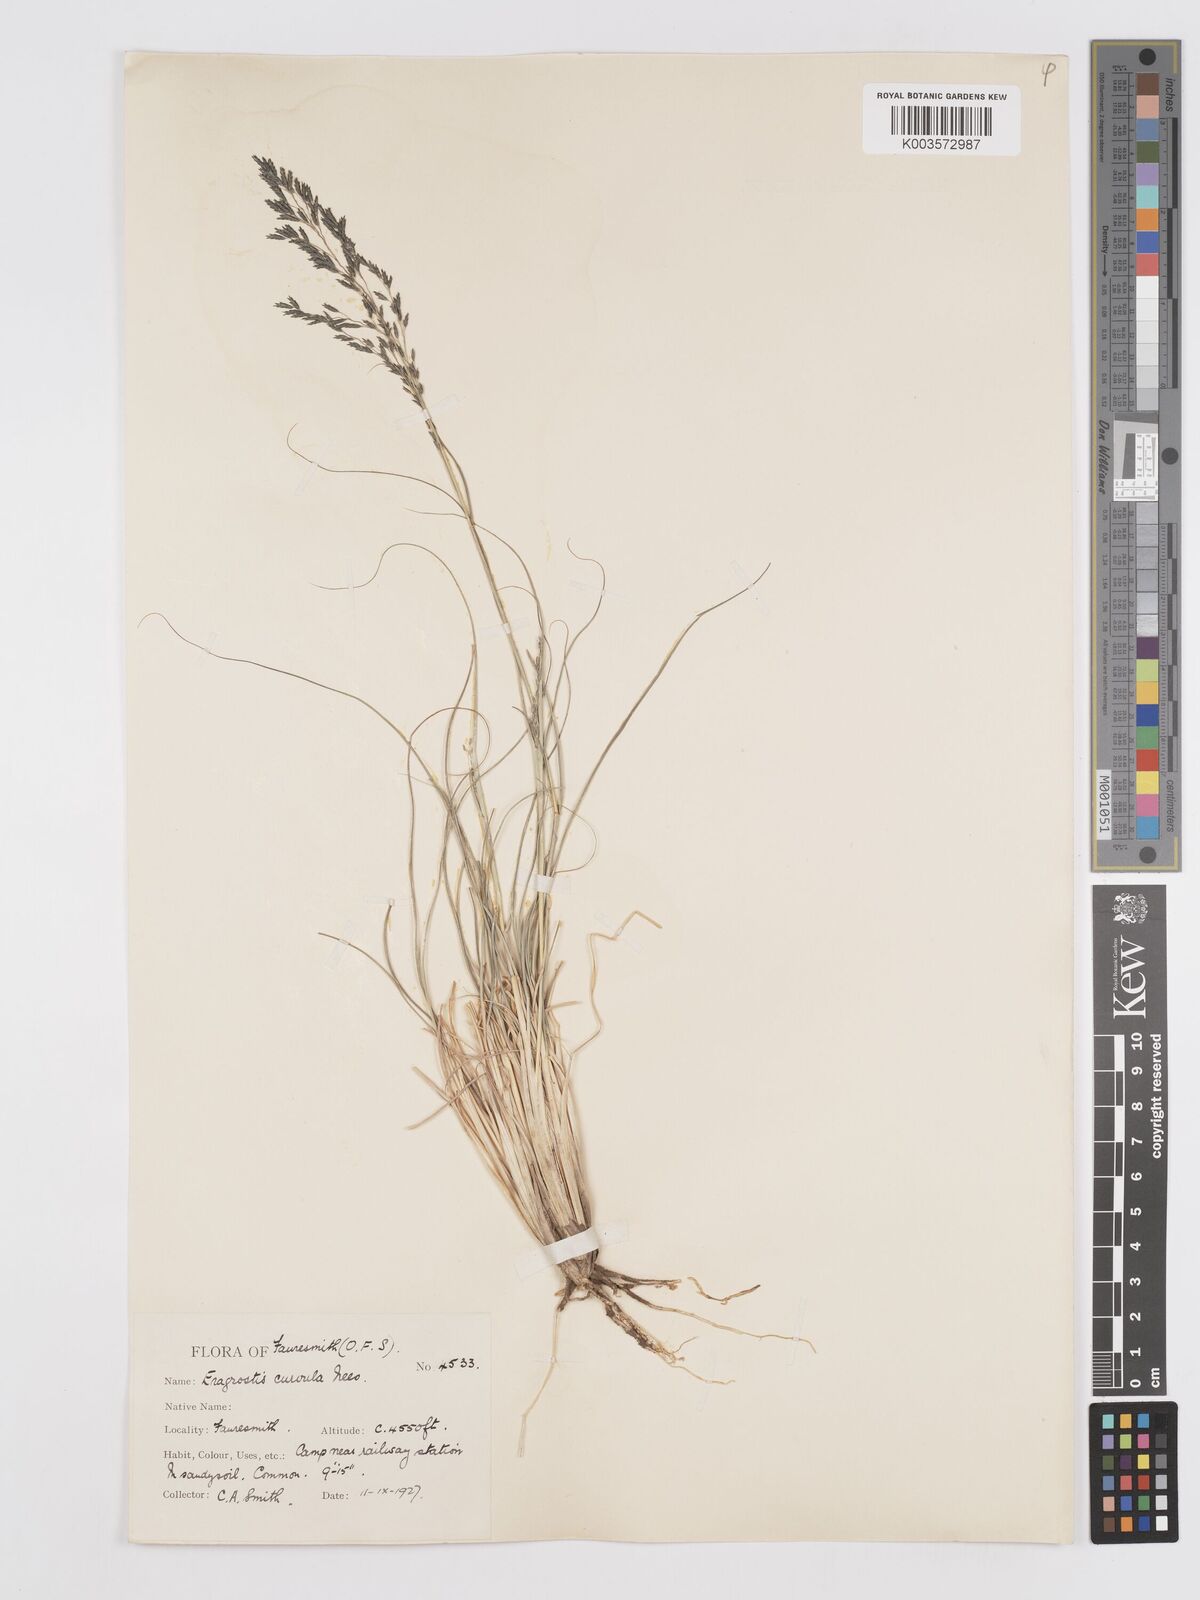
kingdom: Plantae
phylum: Tracheophyta
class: Liliopsida
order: Poales
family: Poaceae
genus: Eragrostis
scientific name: Eragrostis curvula
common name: African love-grass
